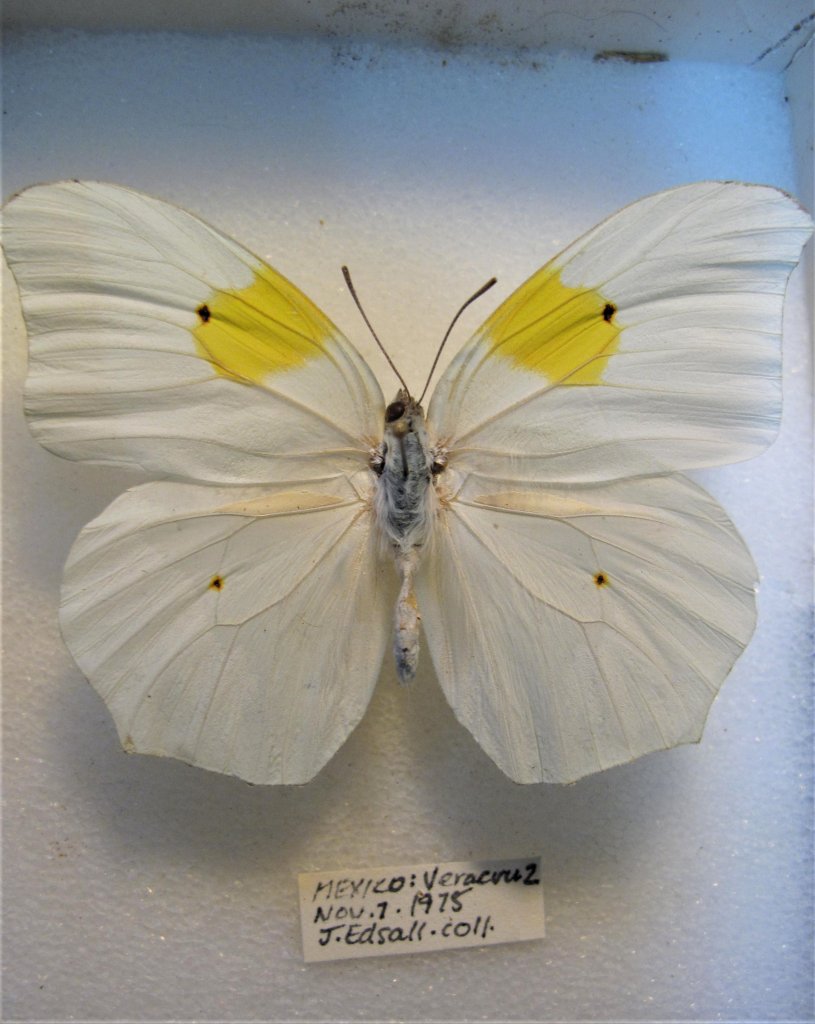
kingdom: Animalia
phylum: Arthropoda
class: Insecta
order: Lepidoptera
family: Pieridae
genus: Anteos
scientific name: Anteos clorinde
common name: White Angled-Sulphur
